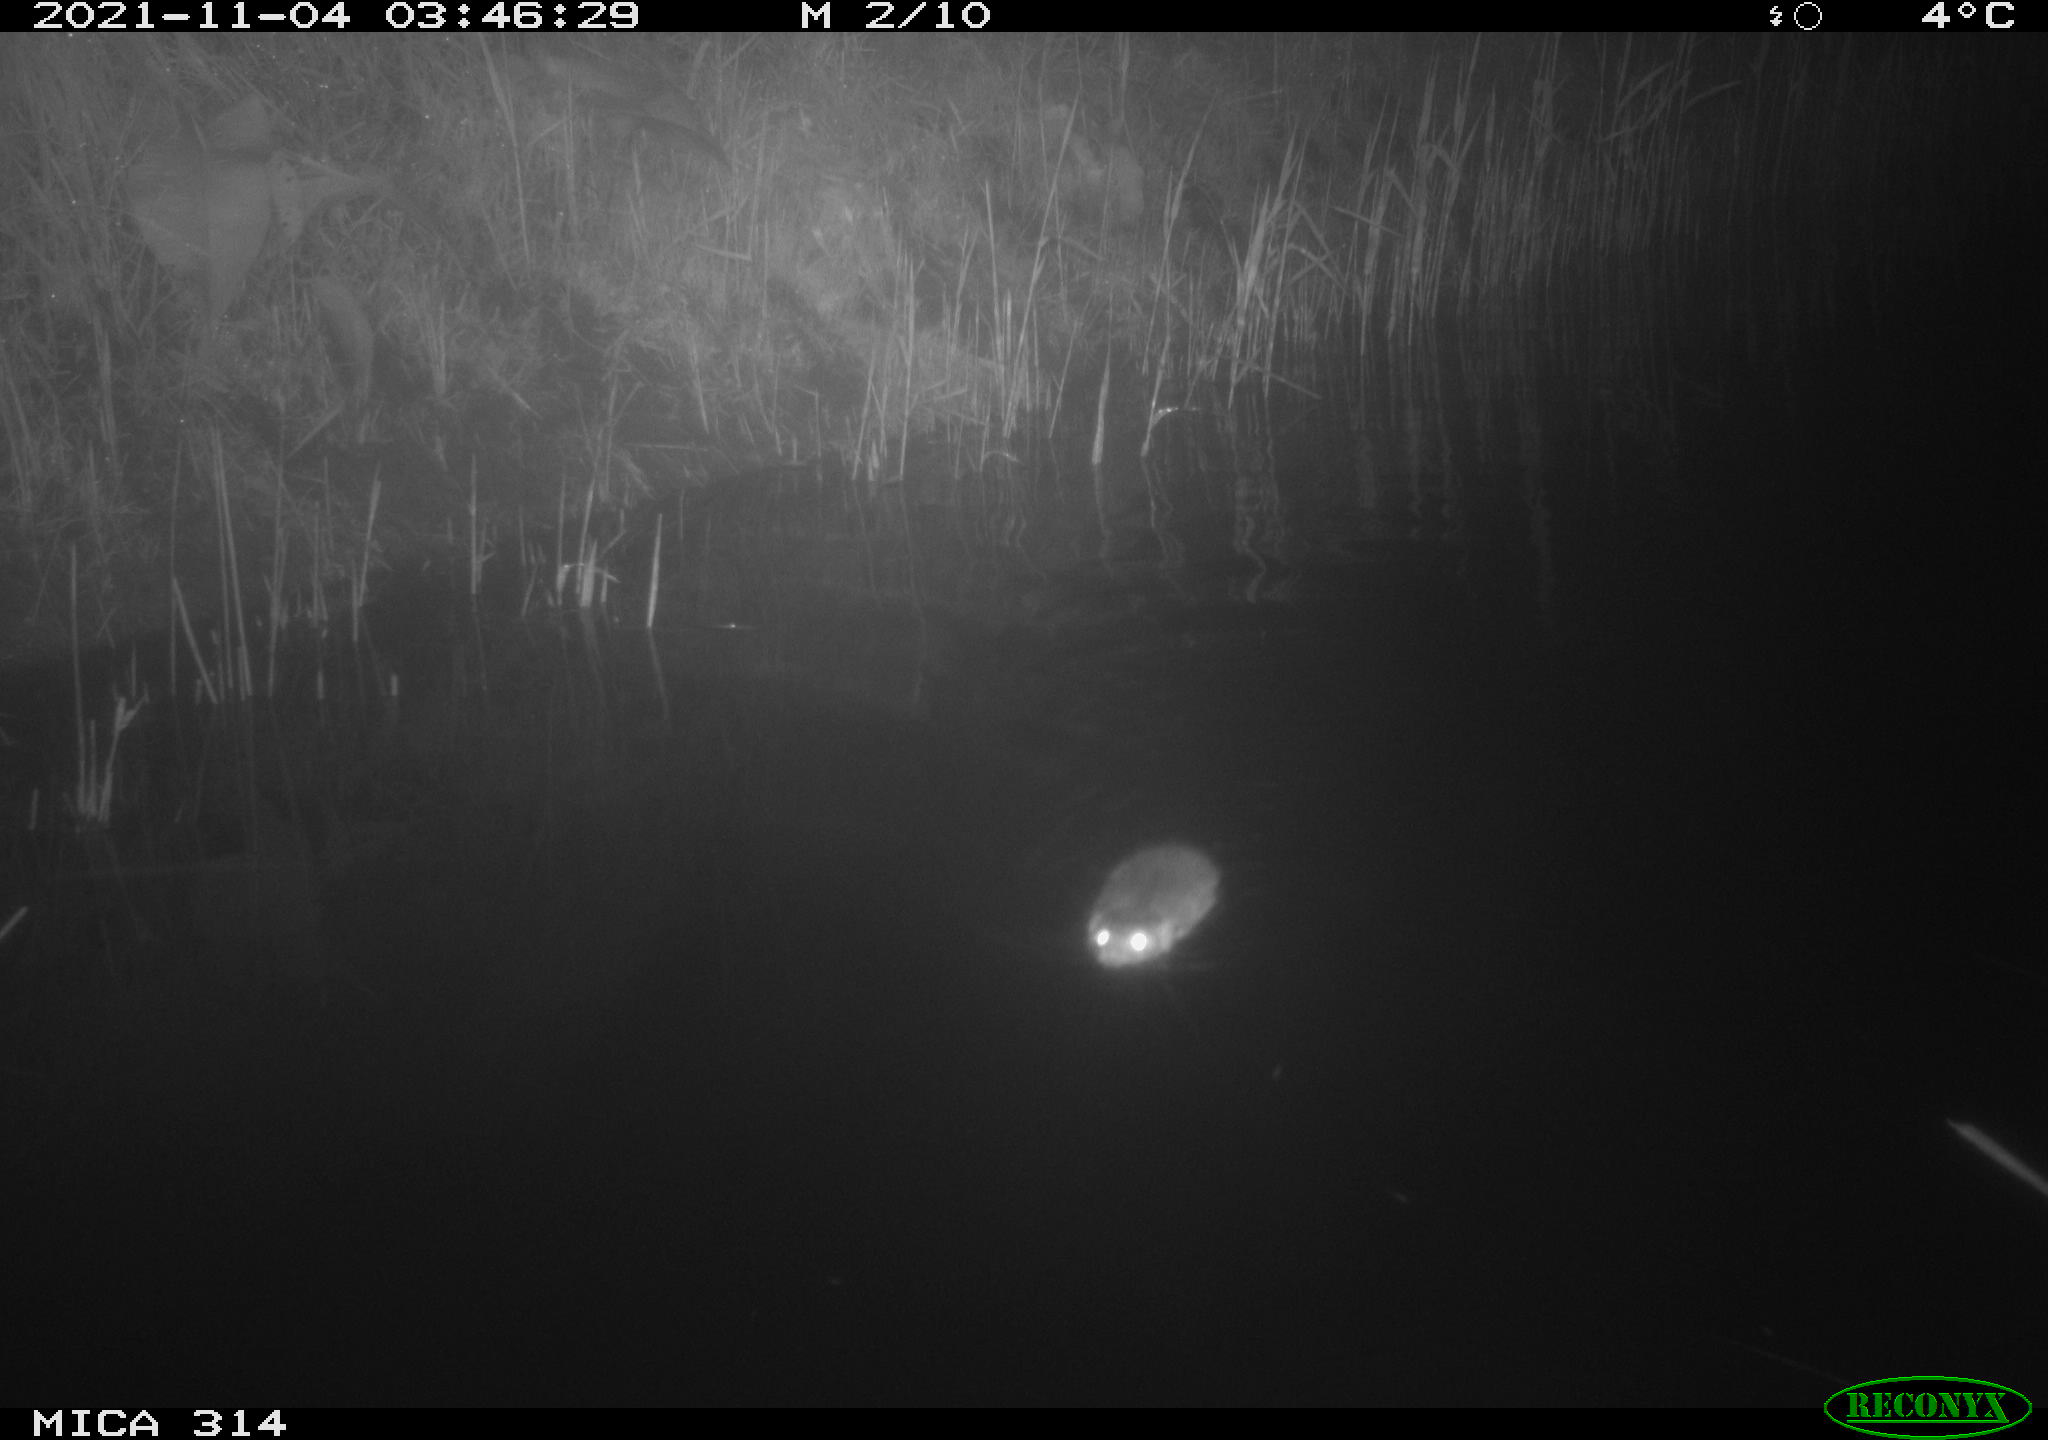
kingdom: Animalia
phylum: Chordata
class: Mammalia
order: Rodentia
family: Cricetidae
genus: Ondatra
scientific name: Ondatra zibethicus
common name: Muskrat
